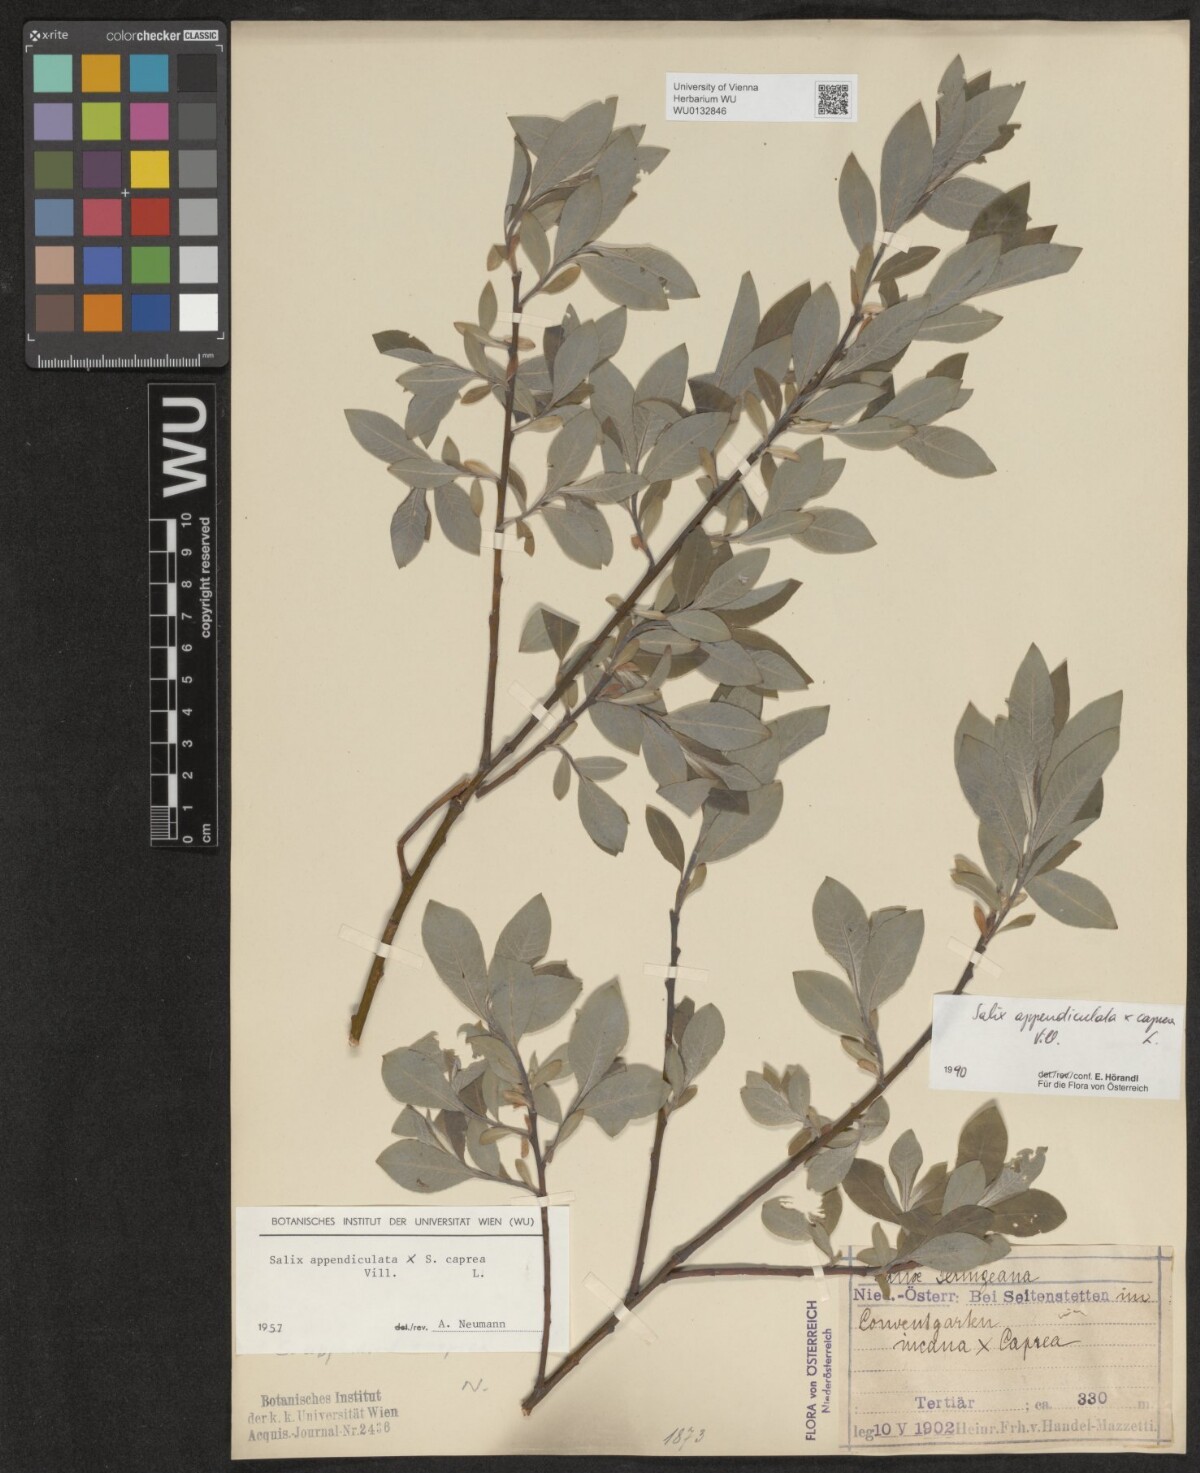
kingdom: Plantae
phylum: Tracheophyta
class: Magnoliopsida
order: Malpighiales
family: Salicaceae
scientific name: Salicaceae
